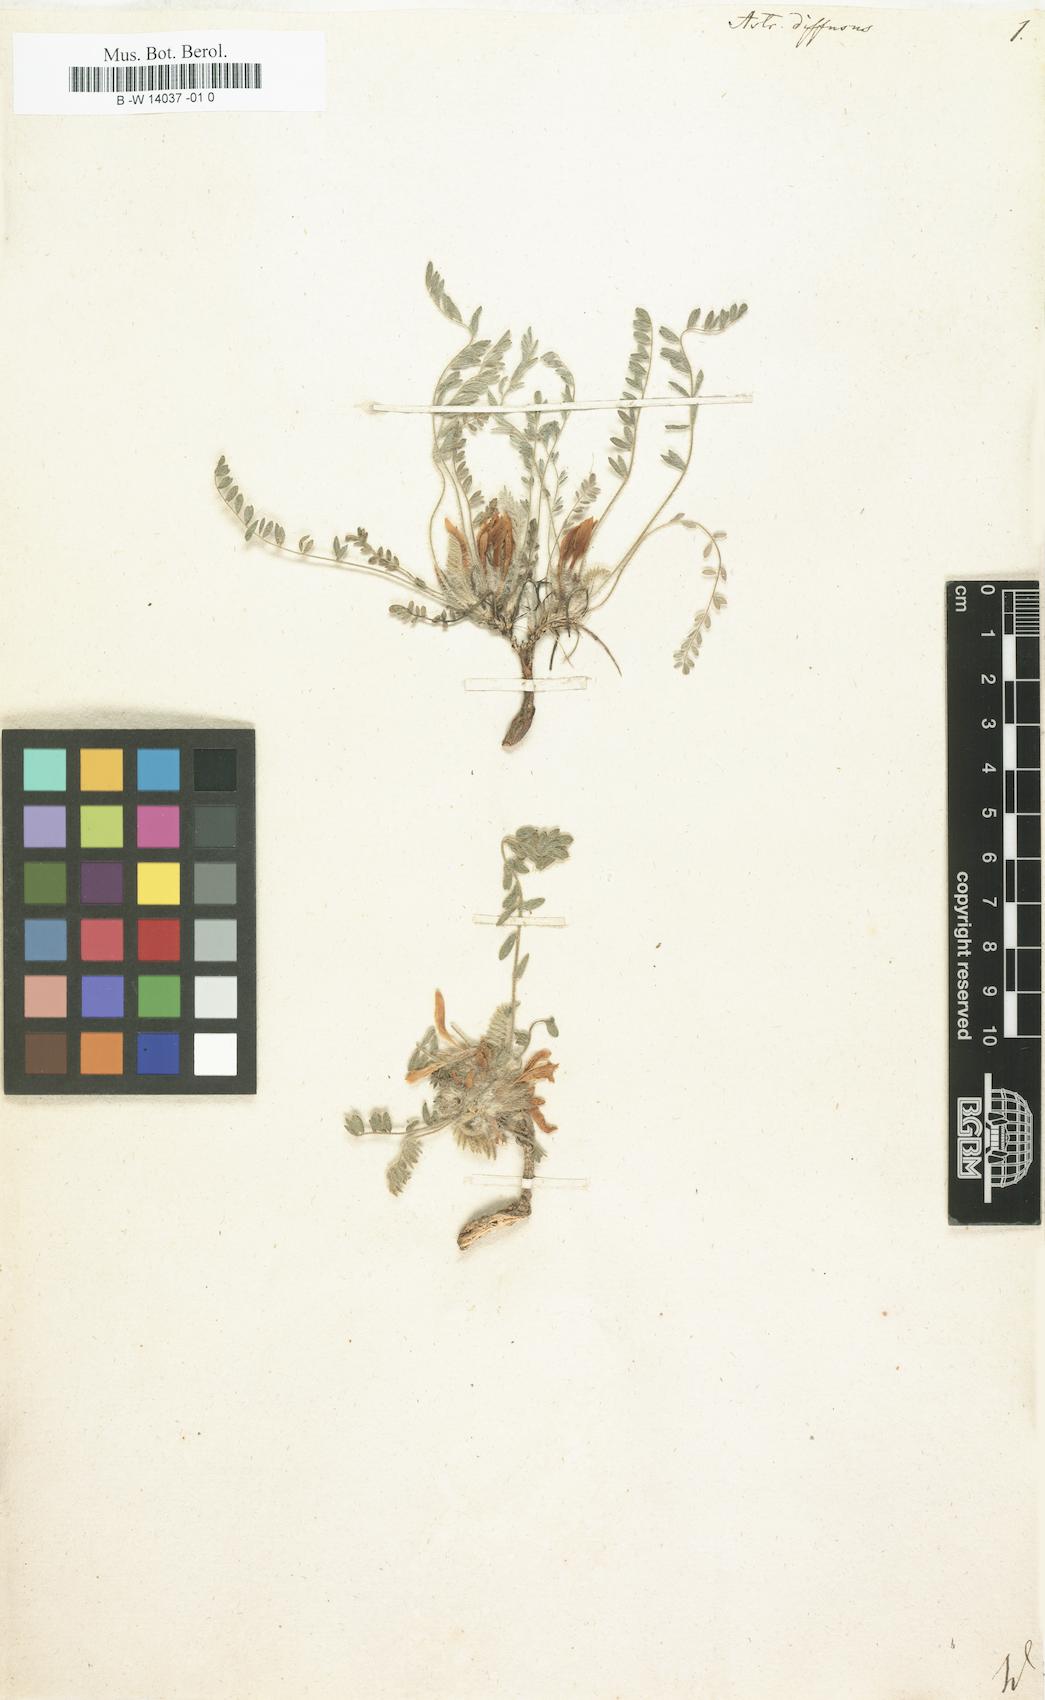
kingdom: Plantae
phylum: Tracheophyta
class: Magnoliopsida
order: Fabales
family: Fabaceae
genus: Astragalus
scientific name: Astragalus dolichophyllus
